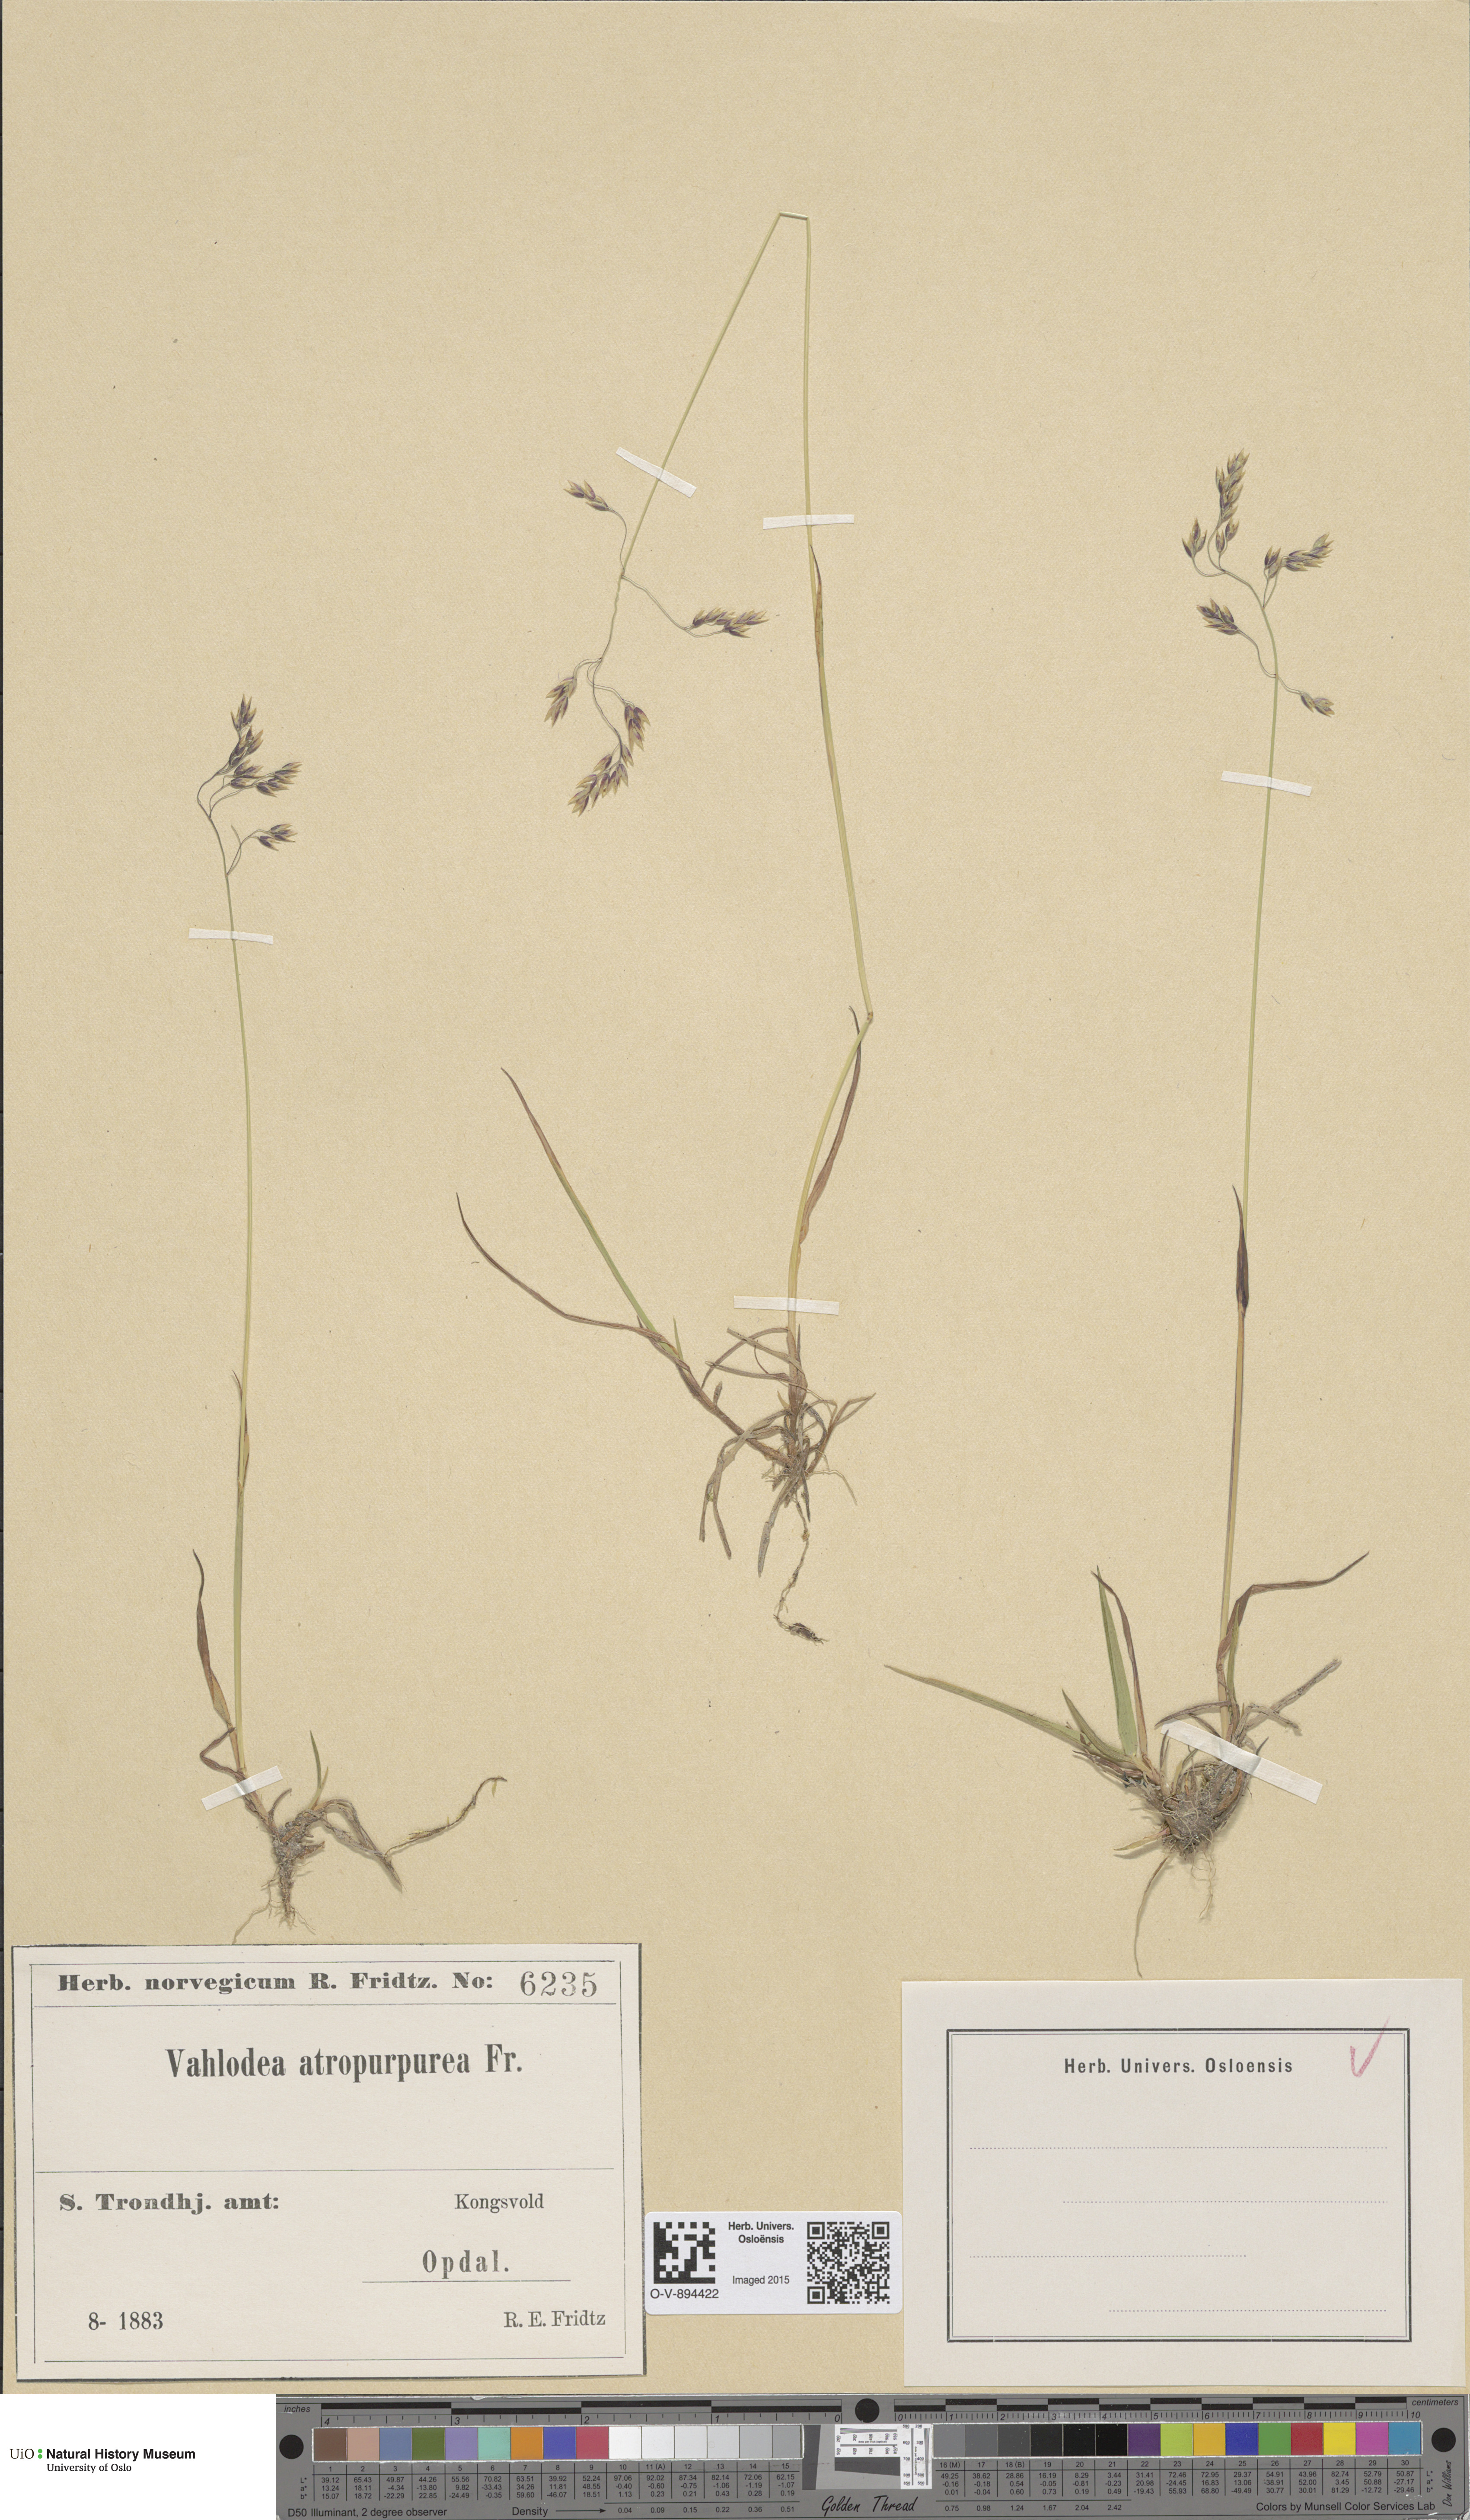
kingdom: Plantae
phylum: Tracheophyta
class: Liliopsida
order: Poales
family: Poaceae
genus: Vahlodea
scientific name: Vahlodea atropurpurea
